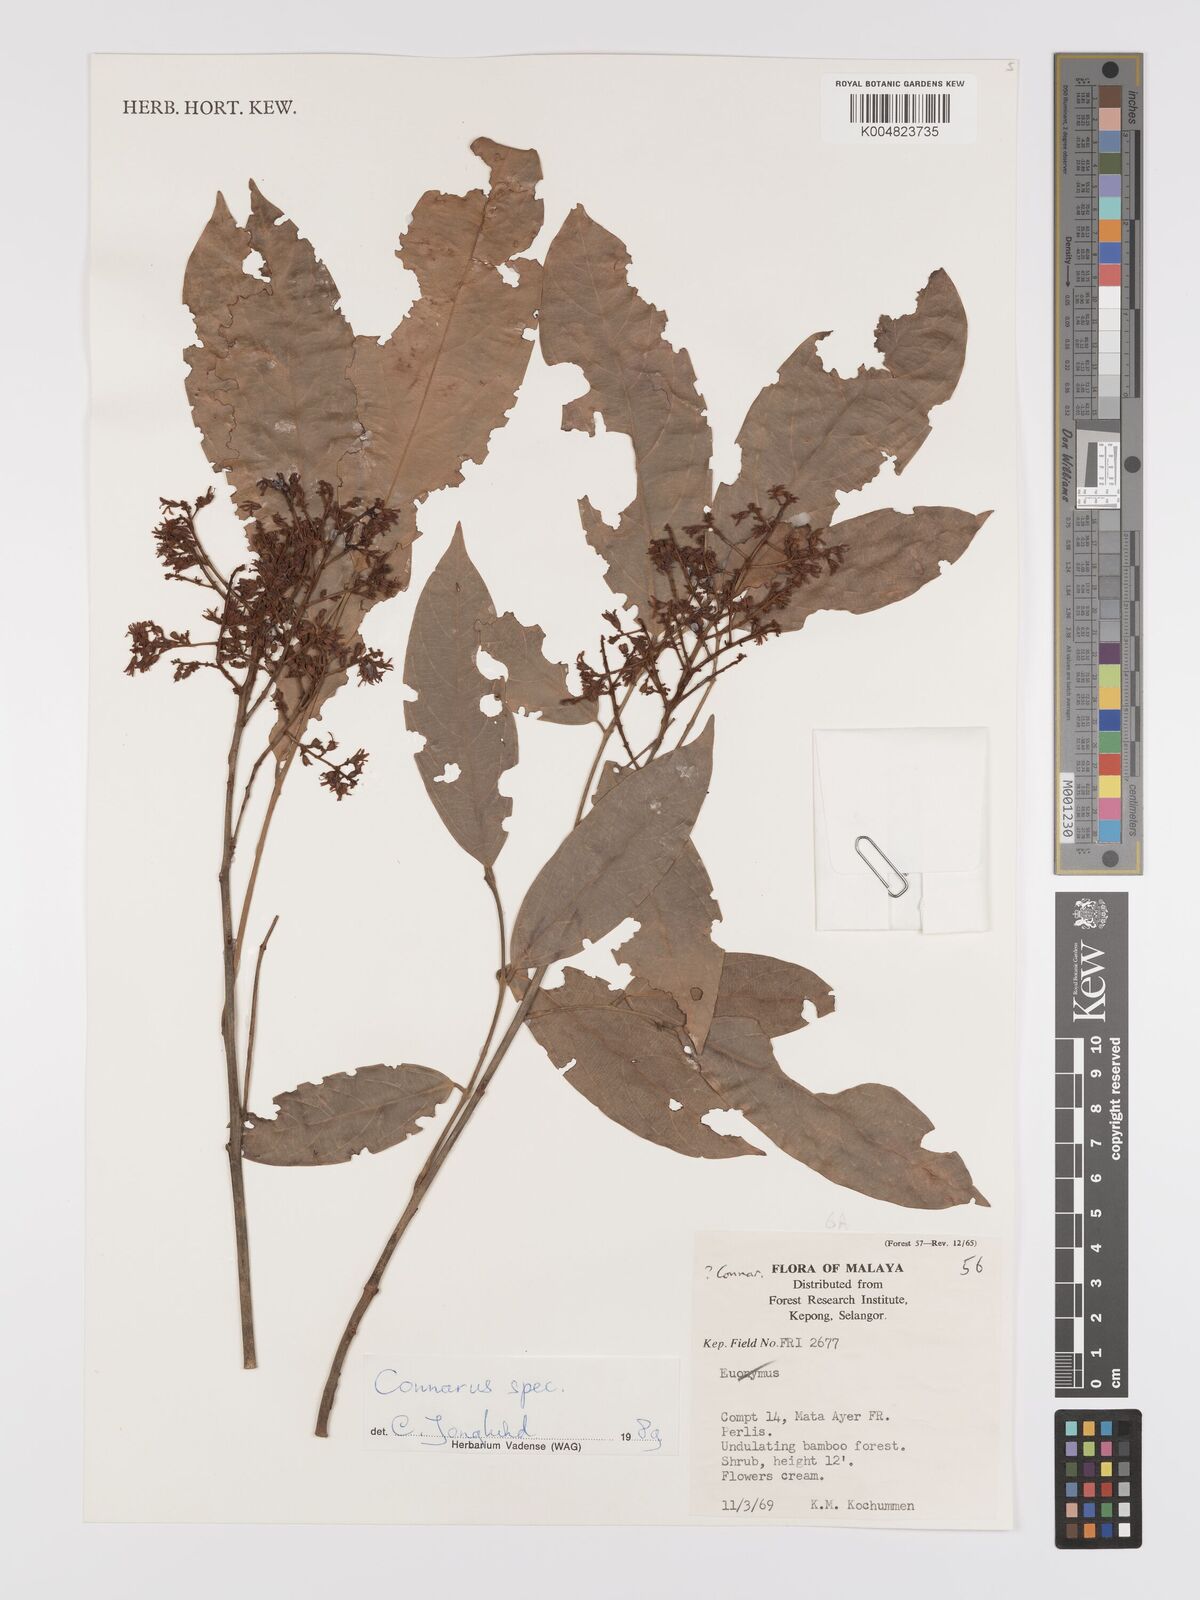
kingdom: Plantae
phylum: Tracheophyta
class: Magnoliopsida
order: Oxalidales
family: Connaraceae
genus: Connarus
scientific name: Connarus
